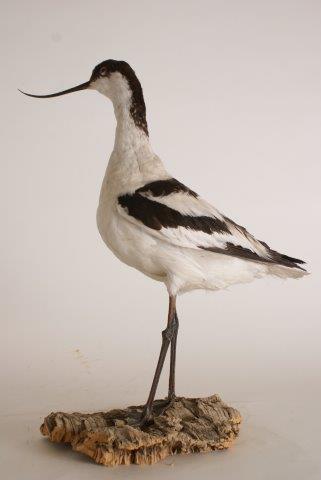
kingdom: Animalia
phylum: Chordata
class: Aves
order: Charadriiformes
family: Recurvirostridae
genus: Recurvirostra
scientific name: Recurvirostra avosetta
